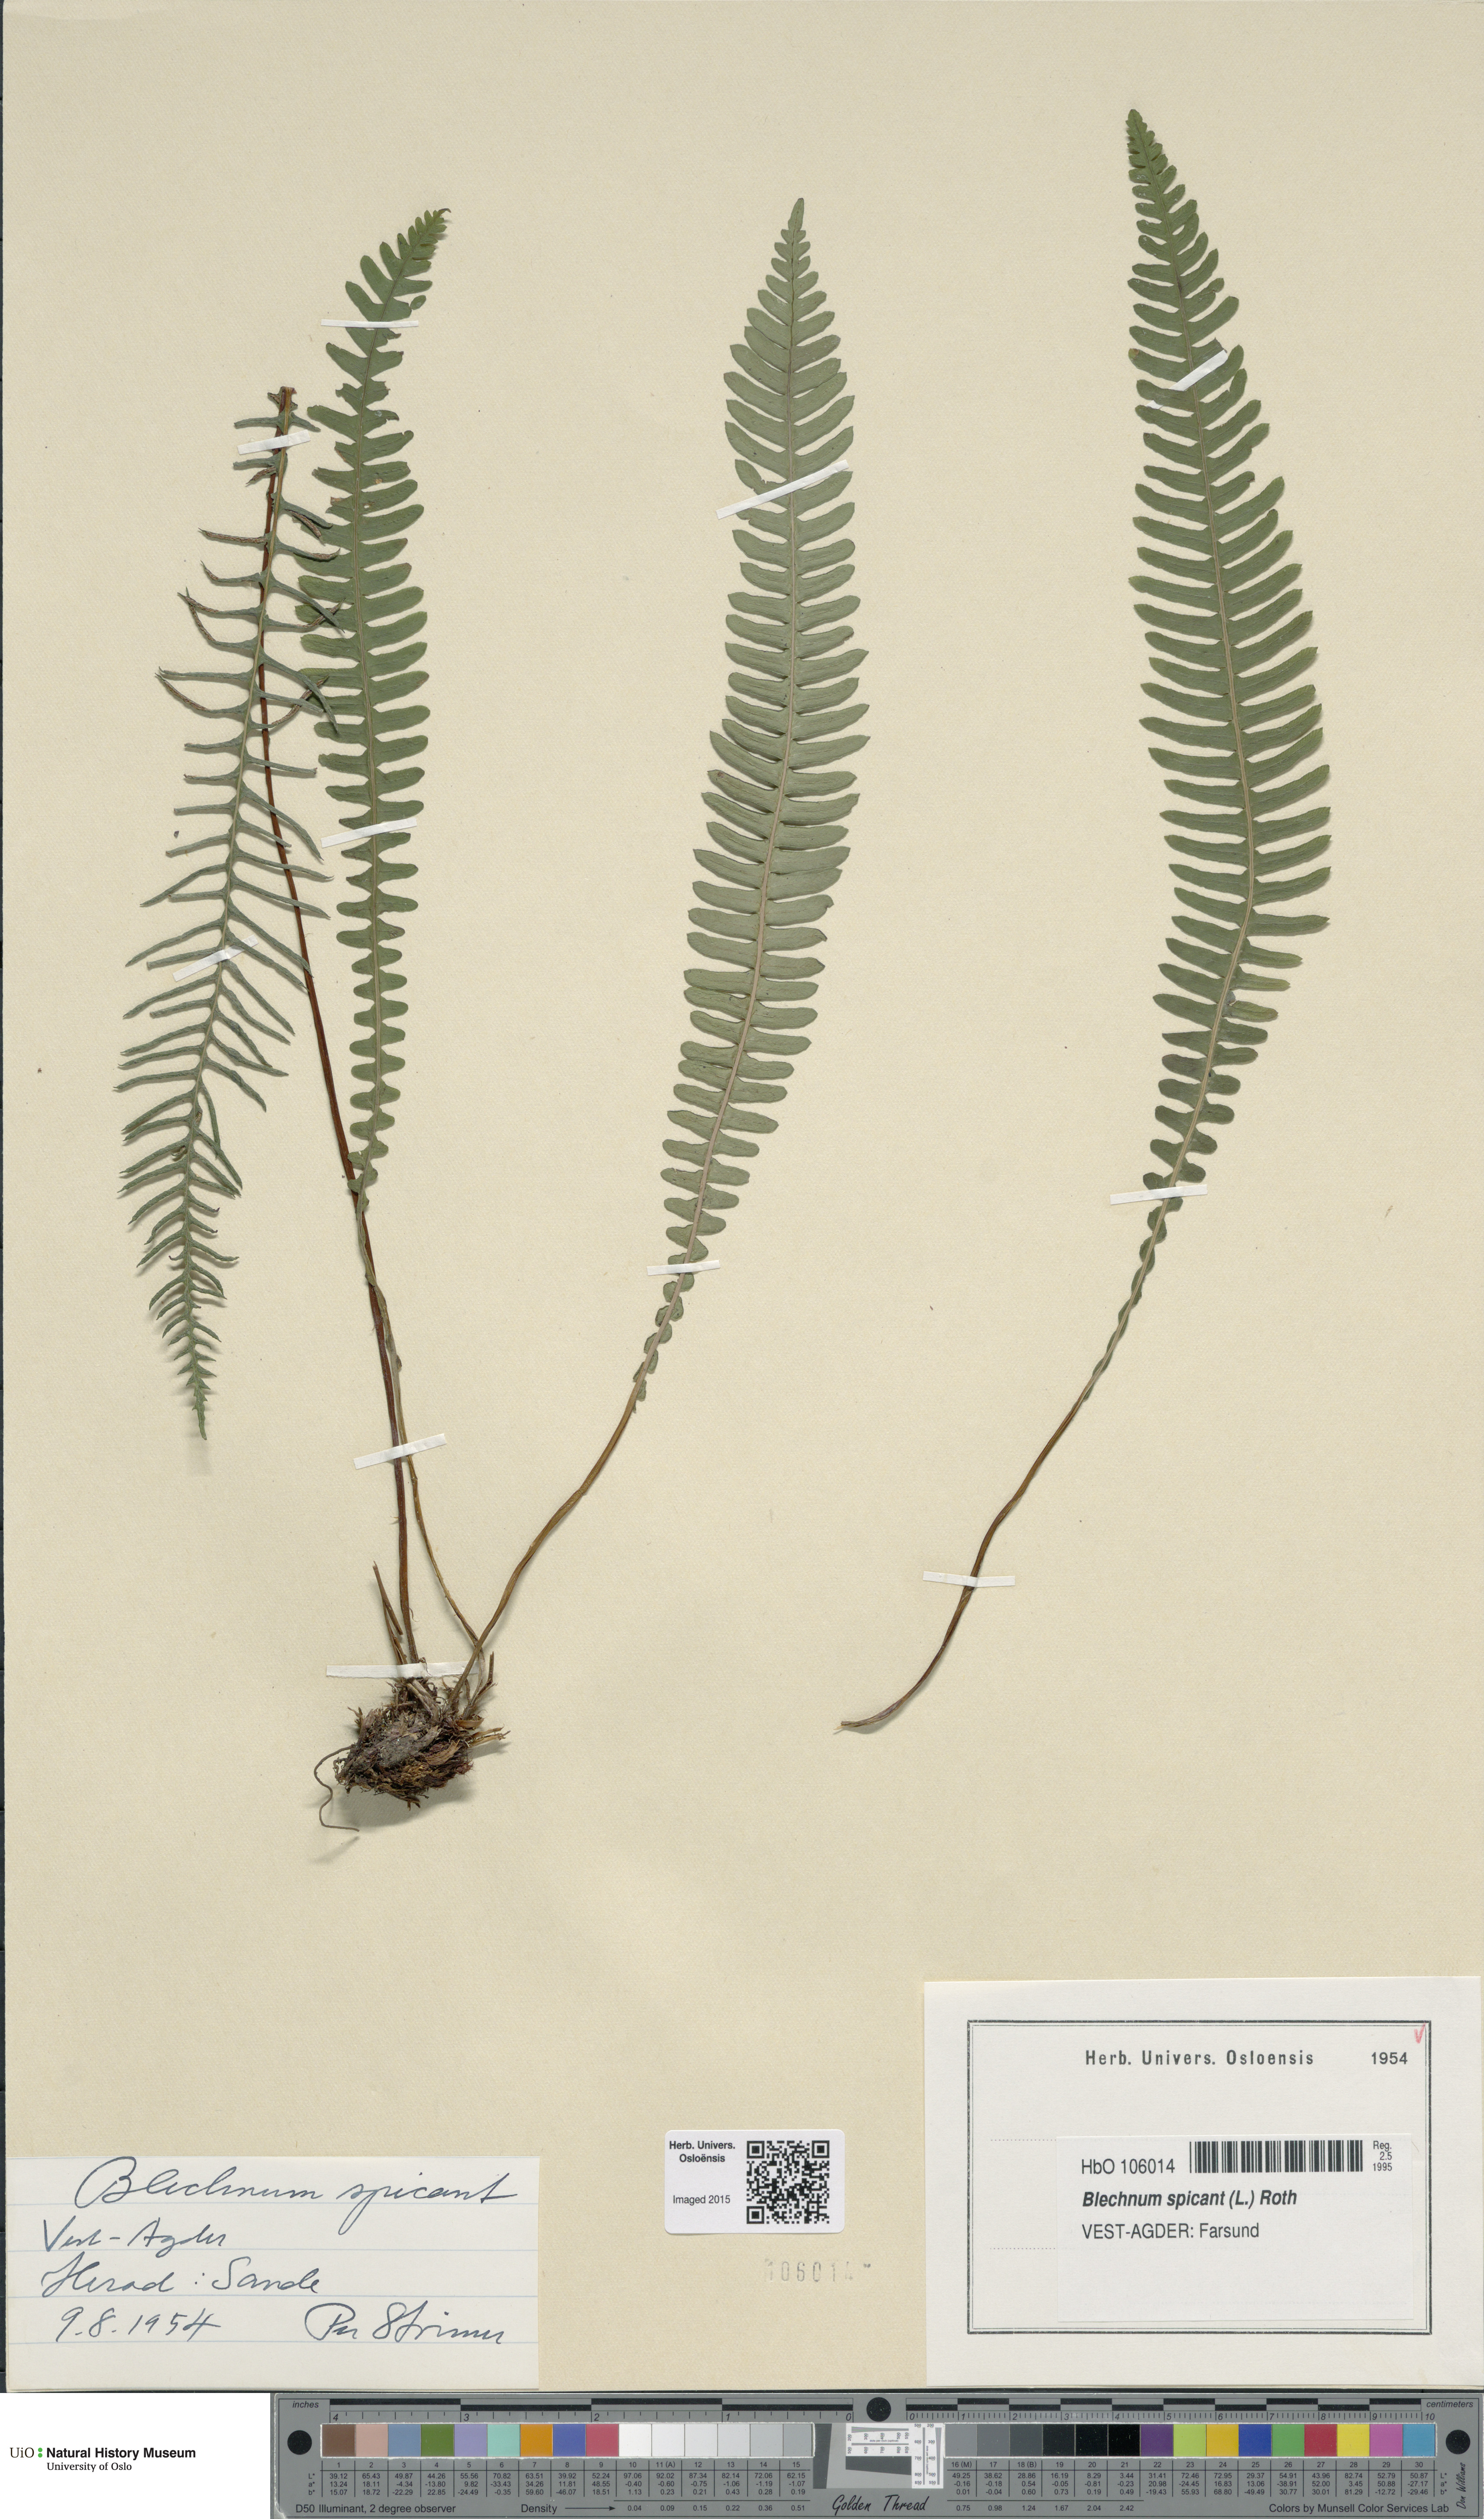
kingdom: Plantae
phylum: Tracheophyta
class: Polypodiopsida
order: Polypodiales
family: Blechnaceae
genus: Struthiopteris
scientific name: Struthiopteris spicant
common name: Deer fern
